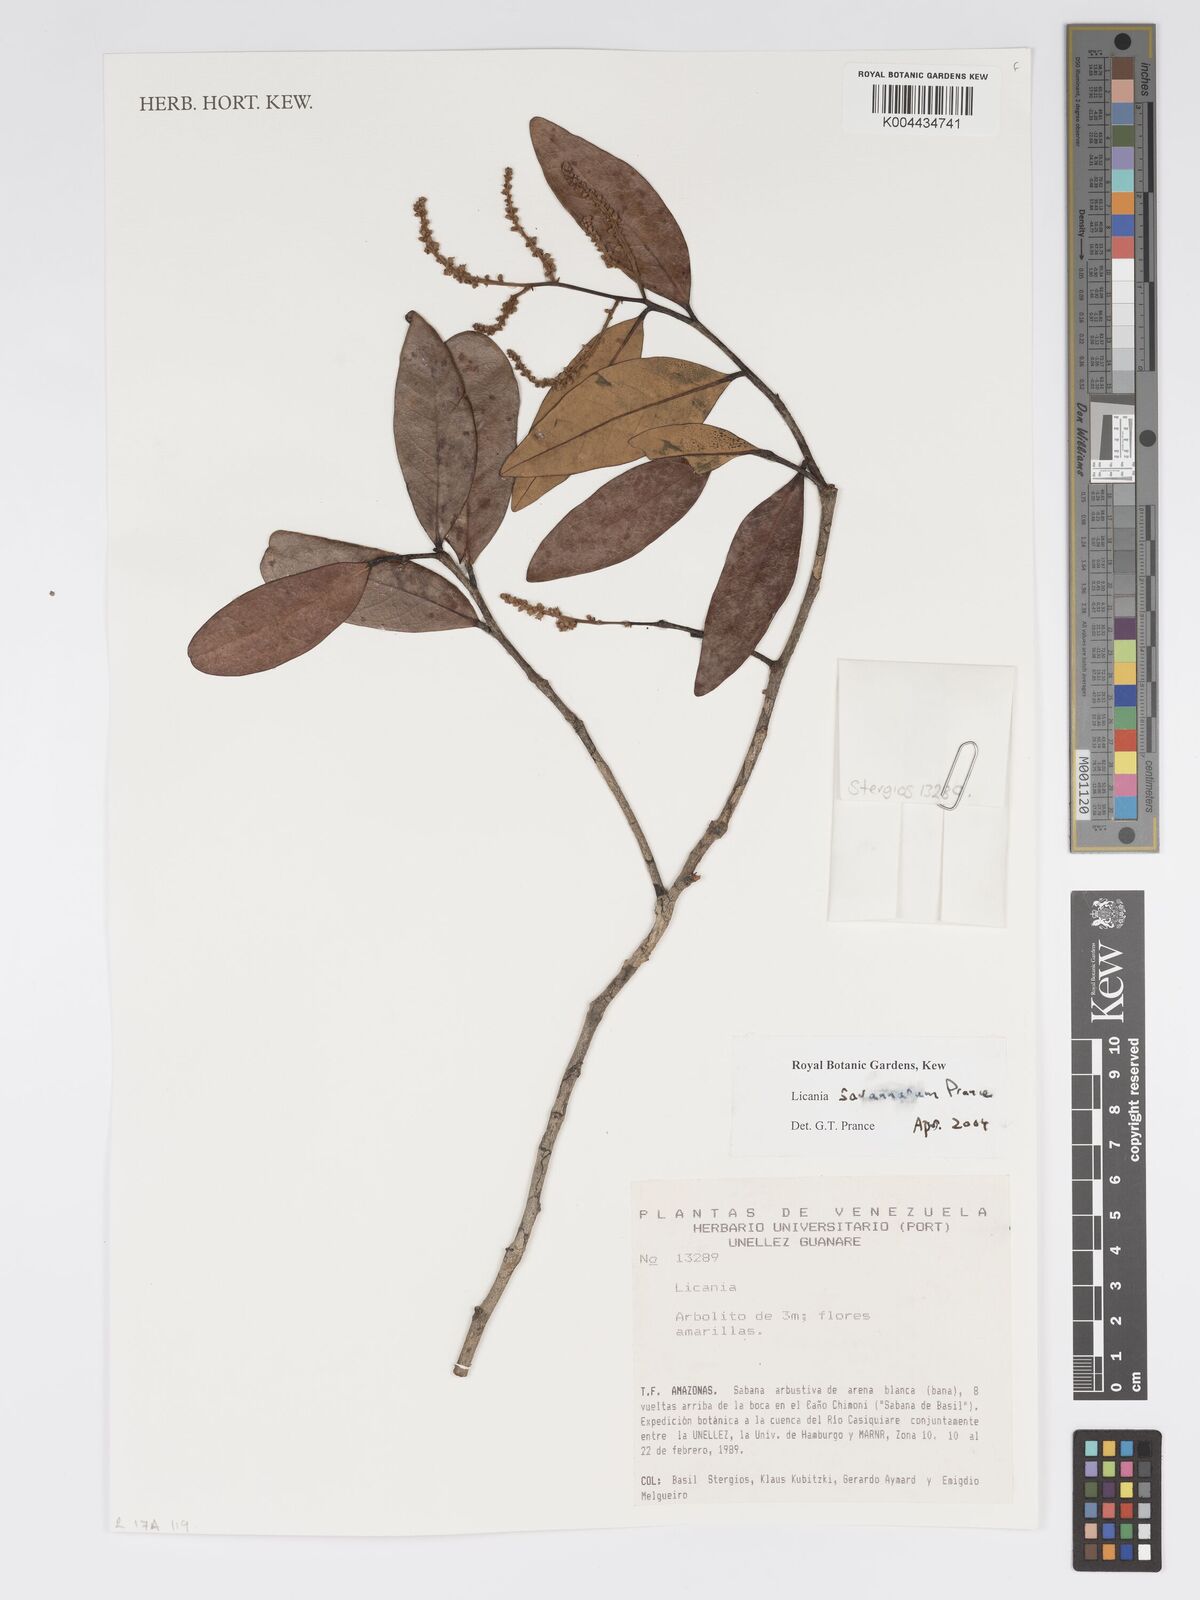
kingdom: Plantae
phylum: Tracheophyta
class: Magnoliopsida
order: Malpighiales
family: Chrysobalanaceae
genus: Licania
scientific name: Licania savannarum
